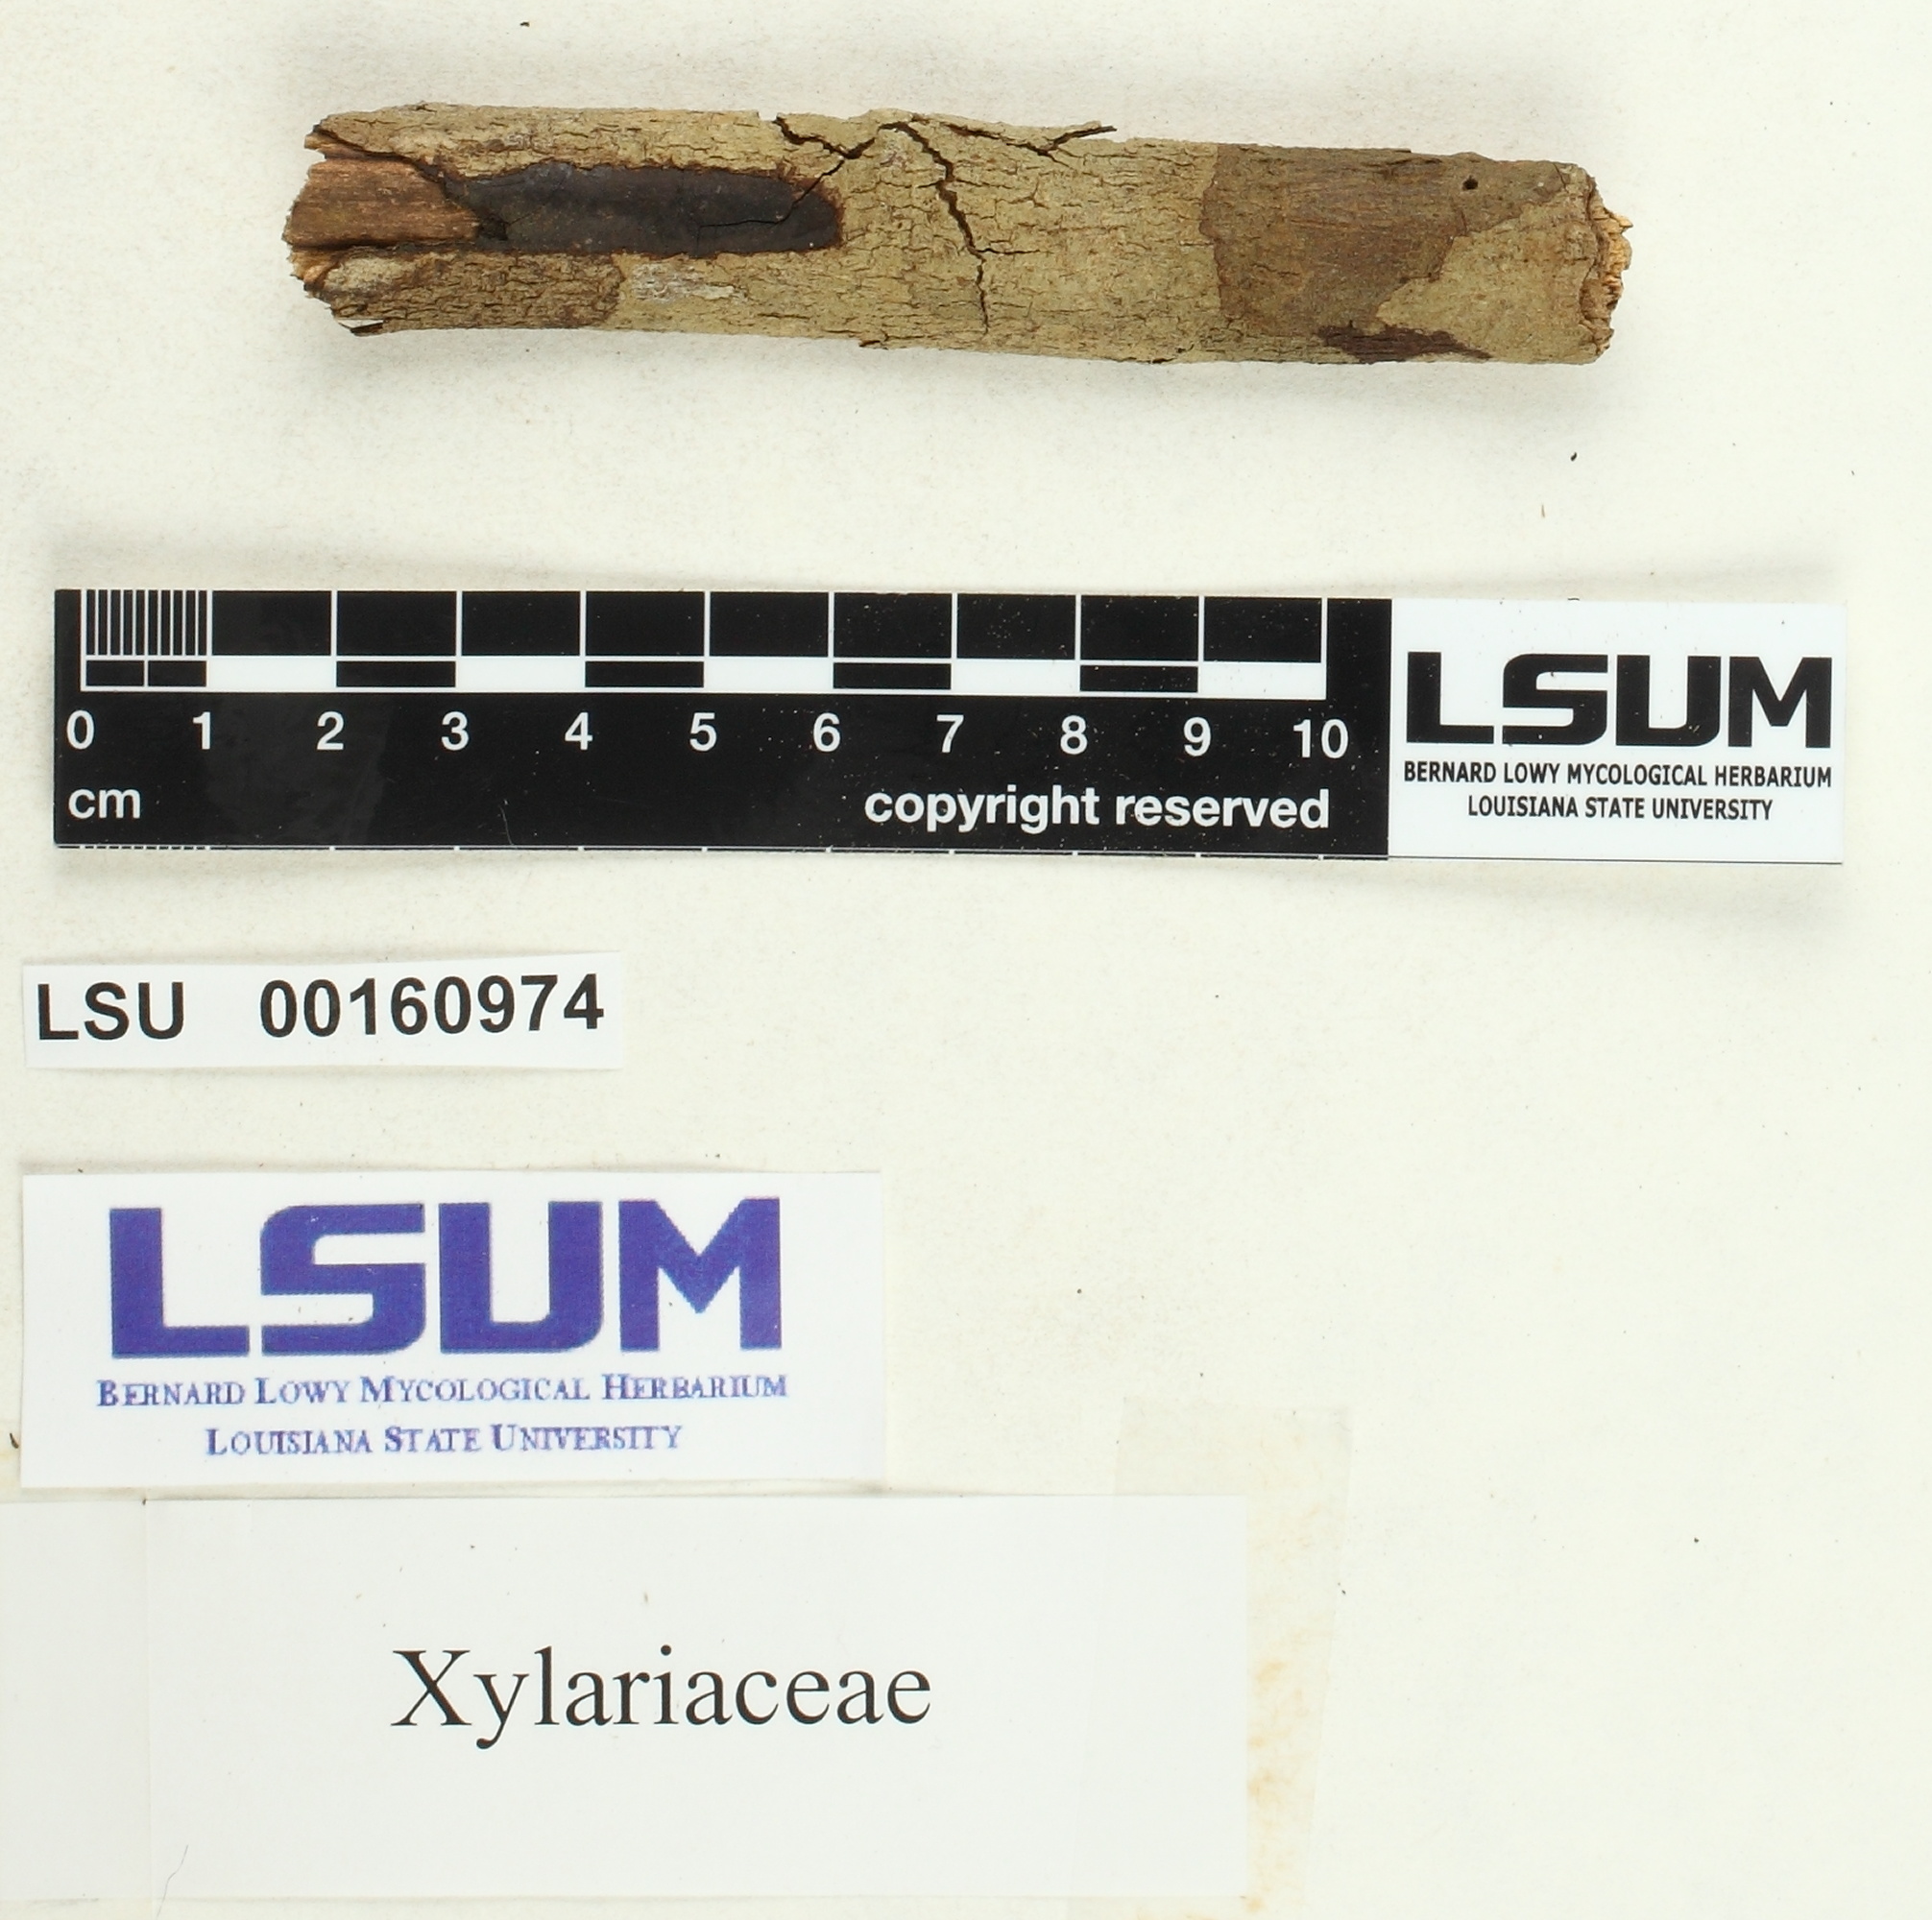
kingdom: Fungi
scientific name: Fungi
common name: Fungi
